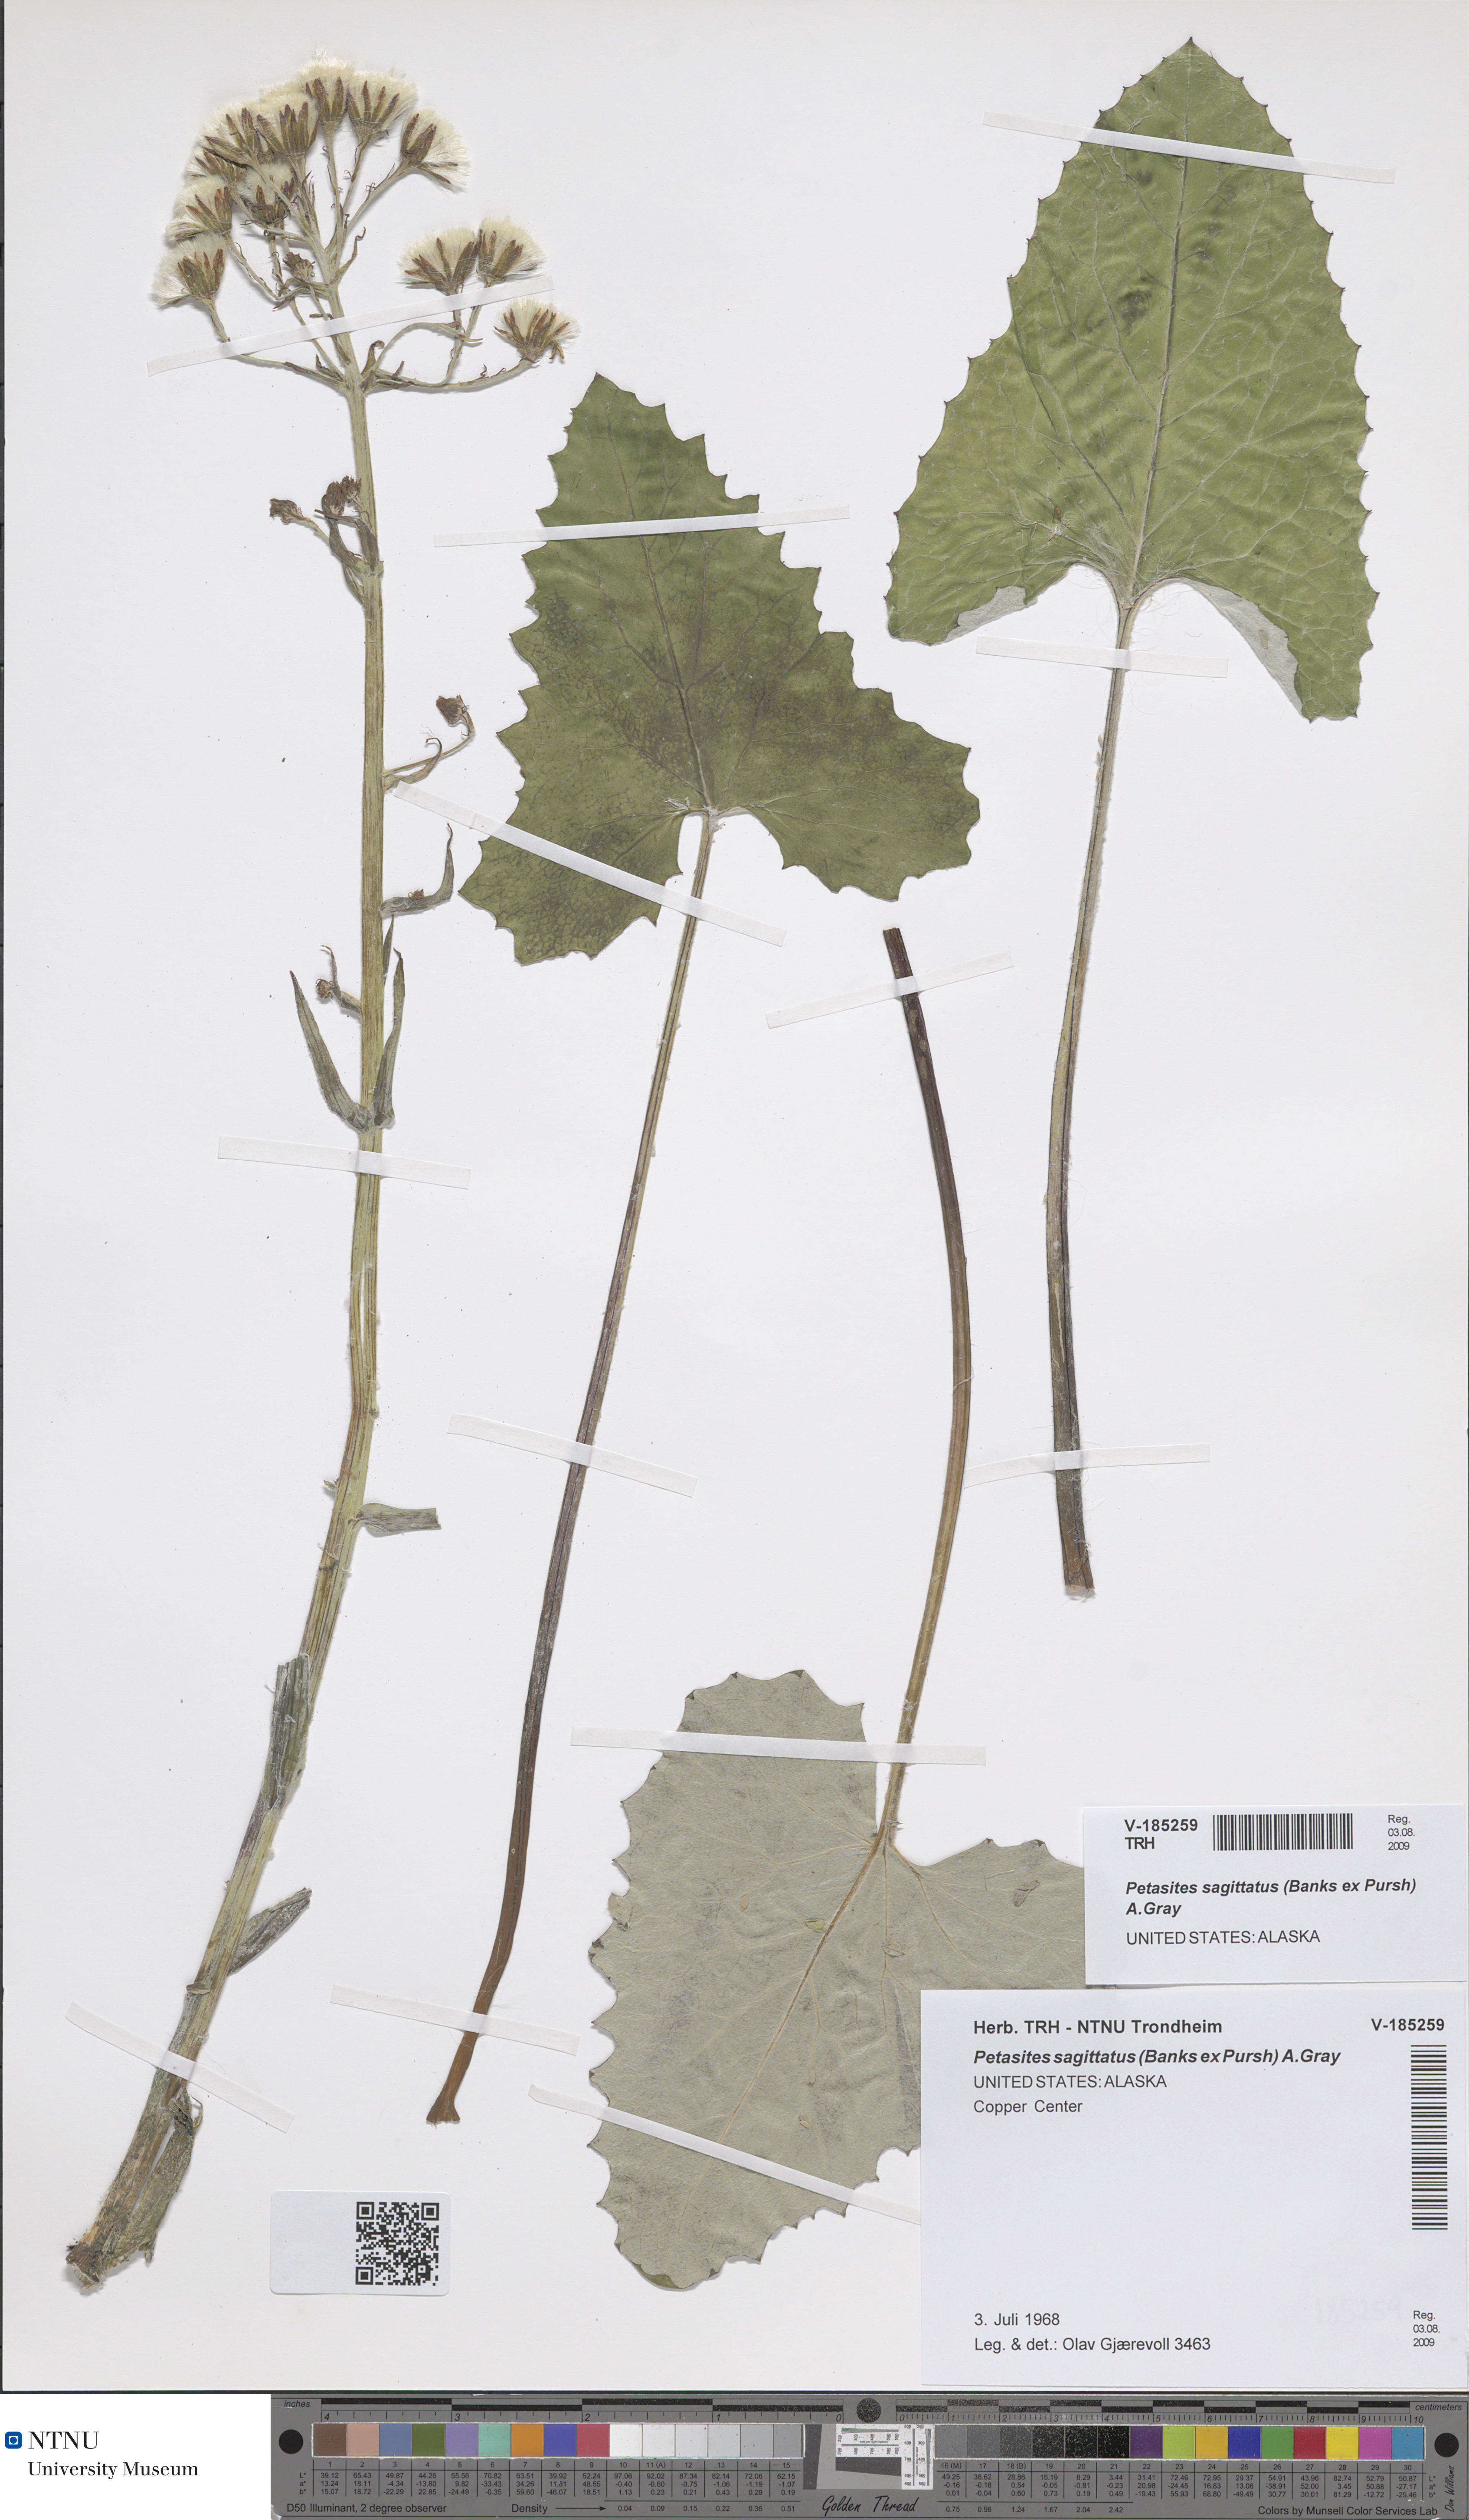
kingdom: Plantae
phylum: Tracheophyta
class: Magnoliopsida
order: Asterales
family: Asteraceae
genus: Petasites
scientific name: Petasites frigidus
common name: Arctic butterbur
